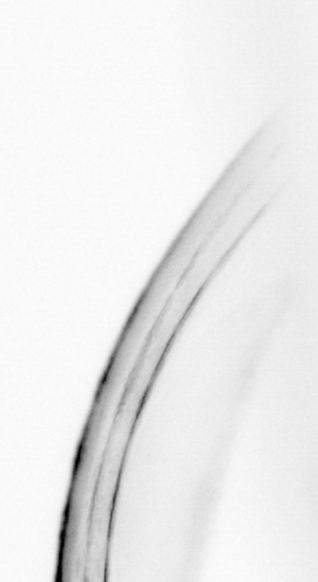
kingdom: Animalia
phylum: Chordata
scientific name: Chordata
